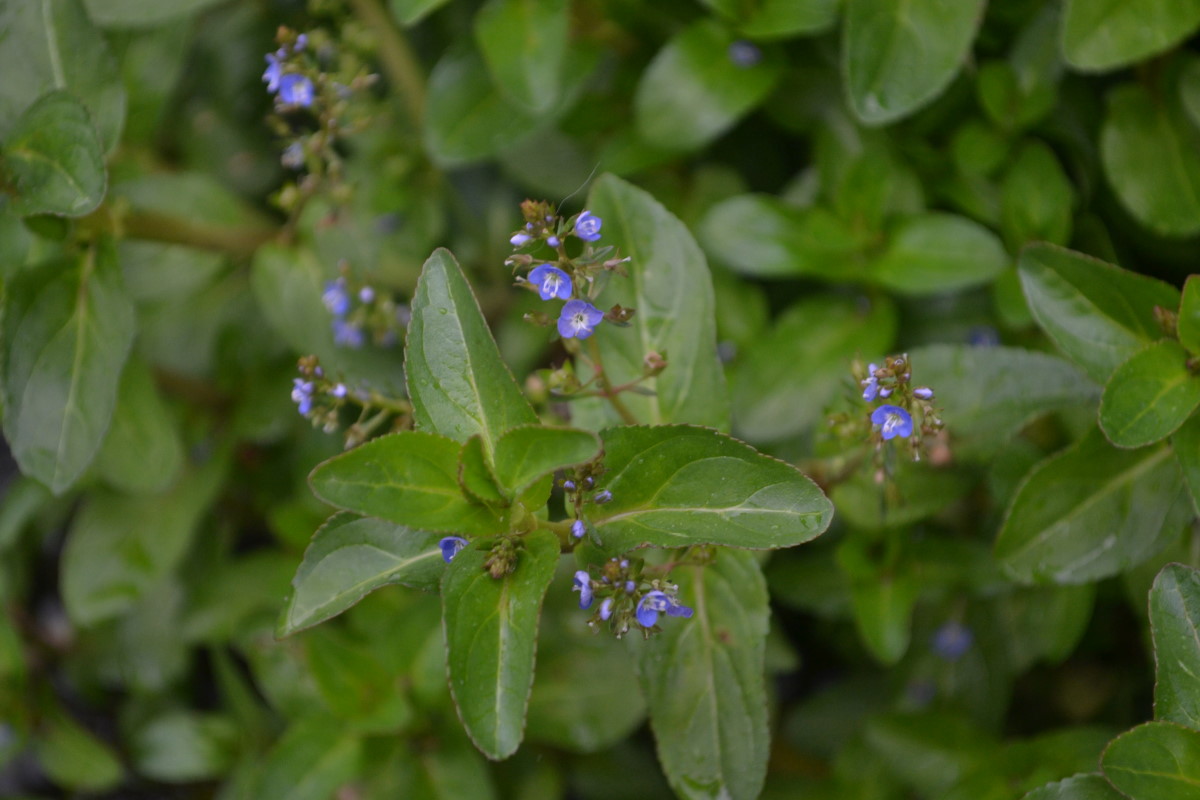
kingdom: Plantae
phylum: Tracheophyta
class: Magnoliopsida
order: Boraginales
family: Boraginaceae
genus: Myosotis
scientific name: Myosotis
